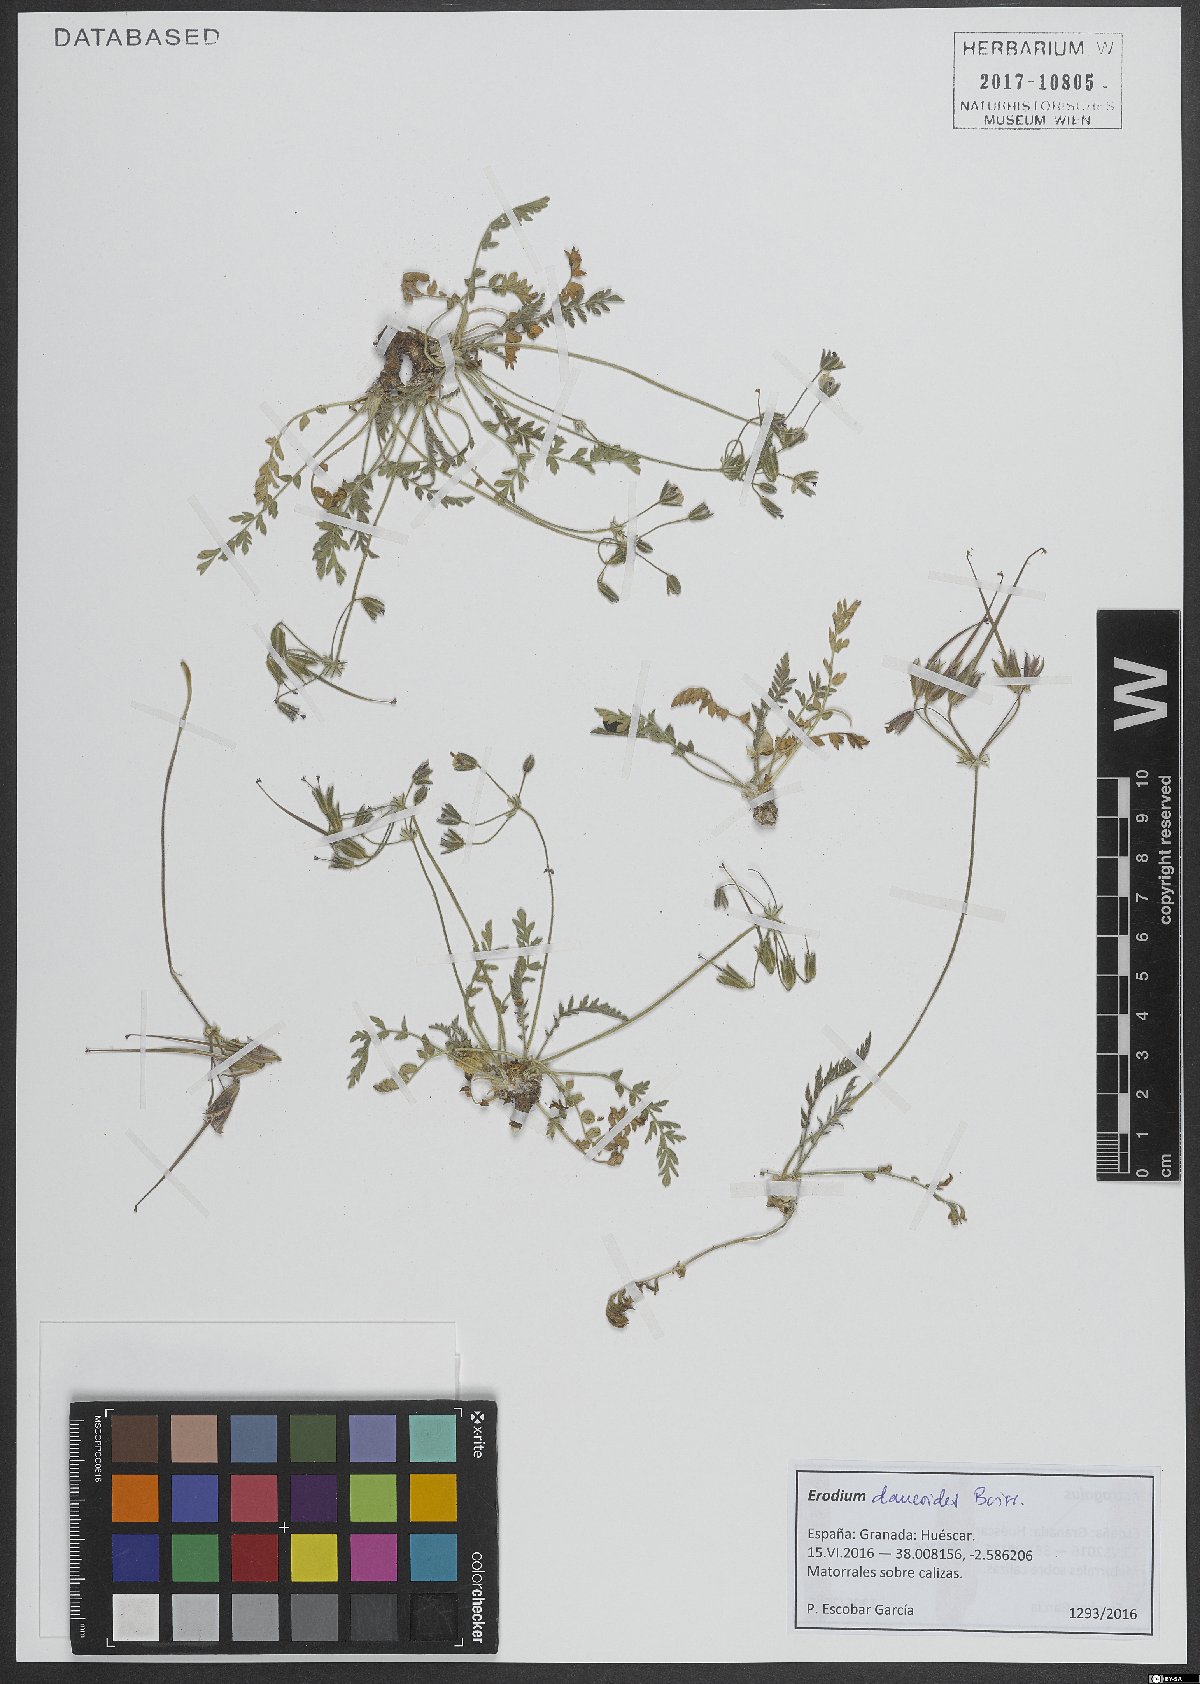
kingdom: Plantae
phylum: Tracheophyta
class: Magnoliopsida
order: Geraniales
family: Geraniaceae
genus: Erodium
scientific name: Erodium daucoides
